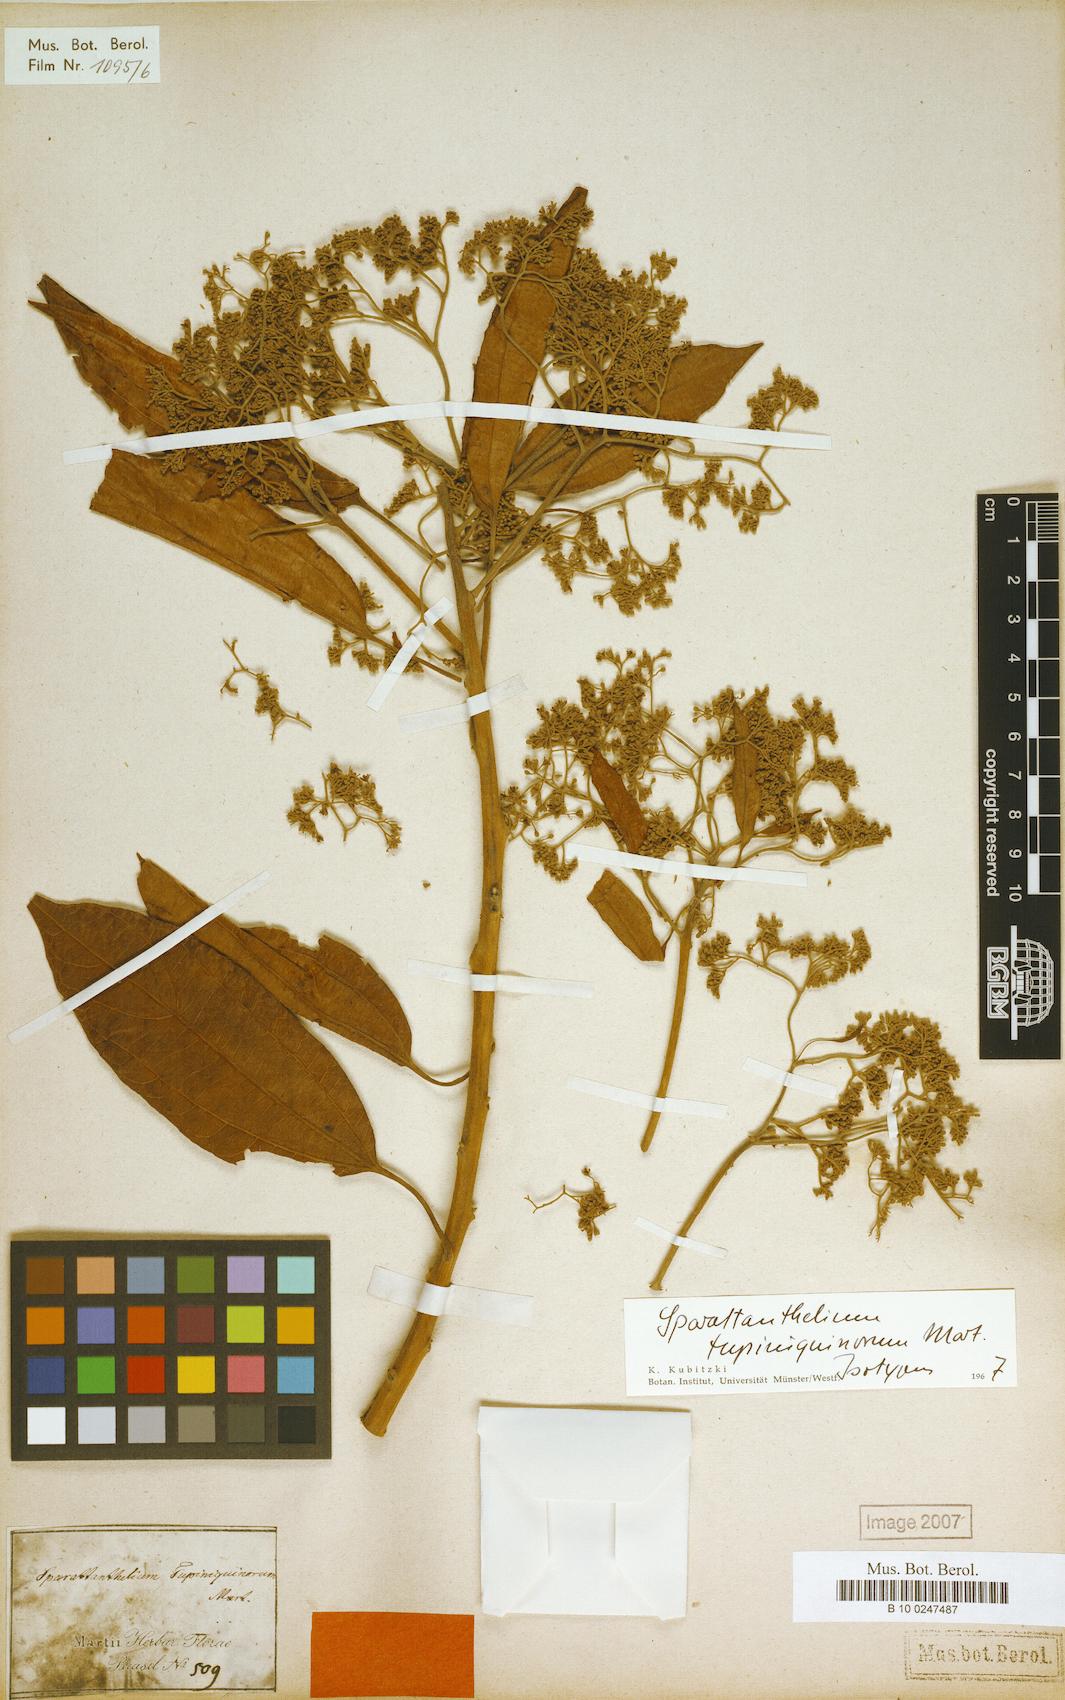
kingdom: Plantae
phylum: Tracheophyta
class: Magnoliopsida
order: Laurales
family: Hernandiaceae
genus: Sparattanthelium
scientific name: Sparattanthelium tupiniquinorum
